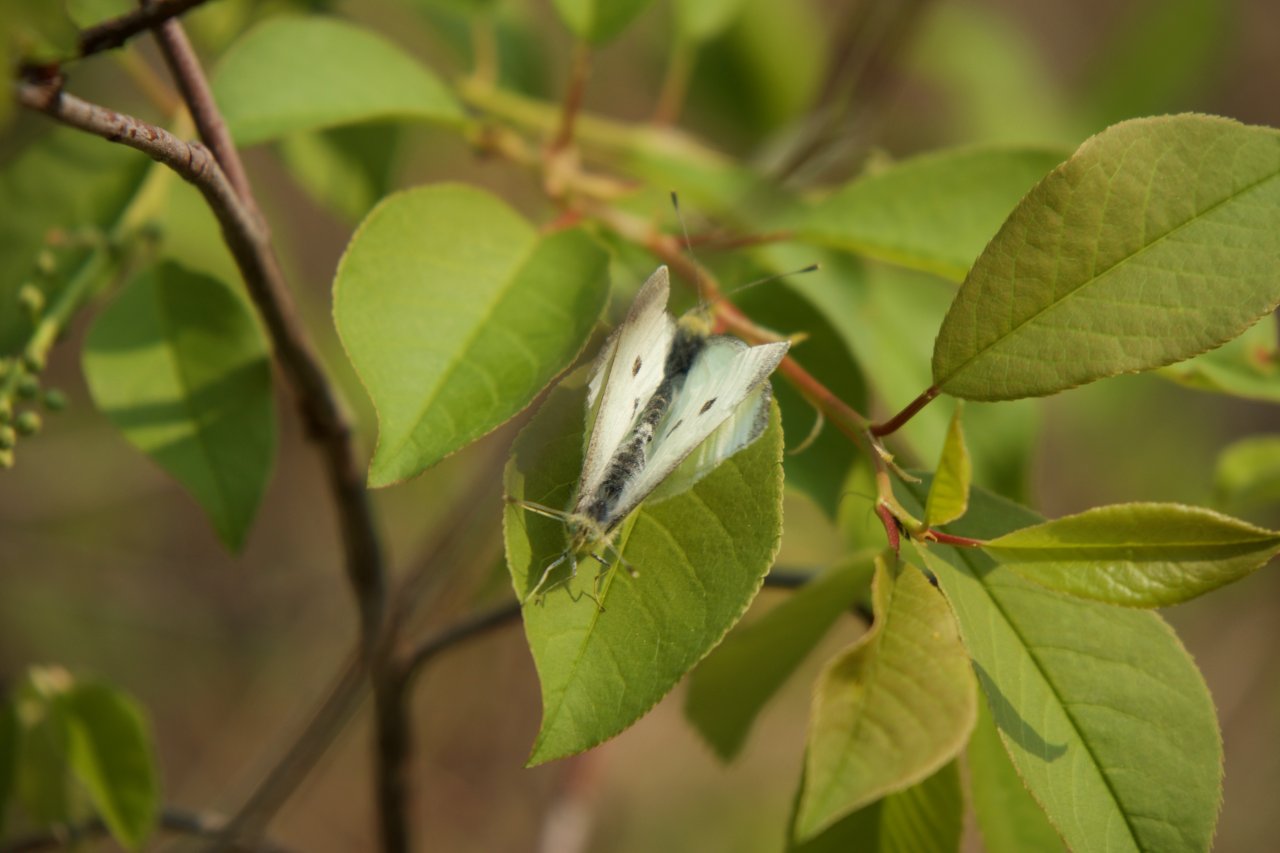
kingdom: Animalia
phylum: Arthropoda
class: Insecta
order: Lepidoptera
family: Pieridae
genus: Pieris
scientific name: Pieris rapae
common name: Cabbage White
